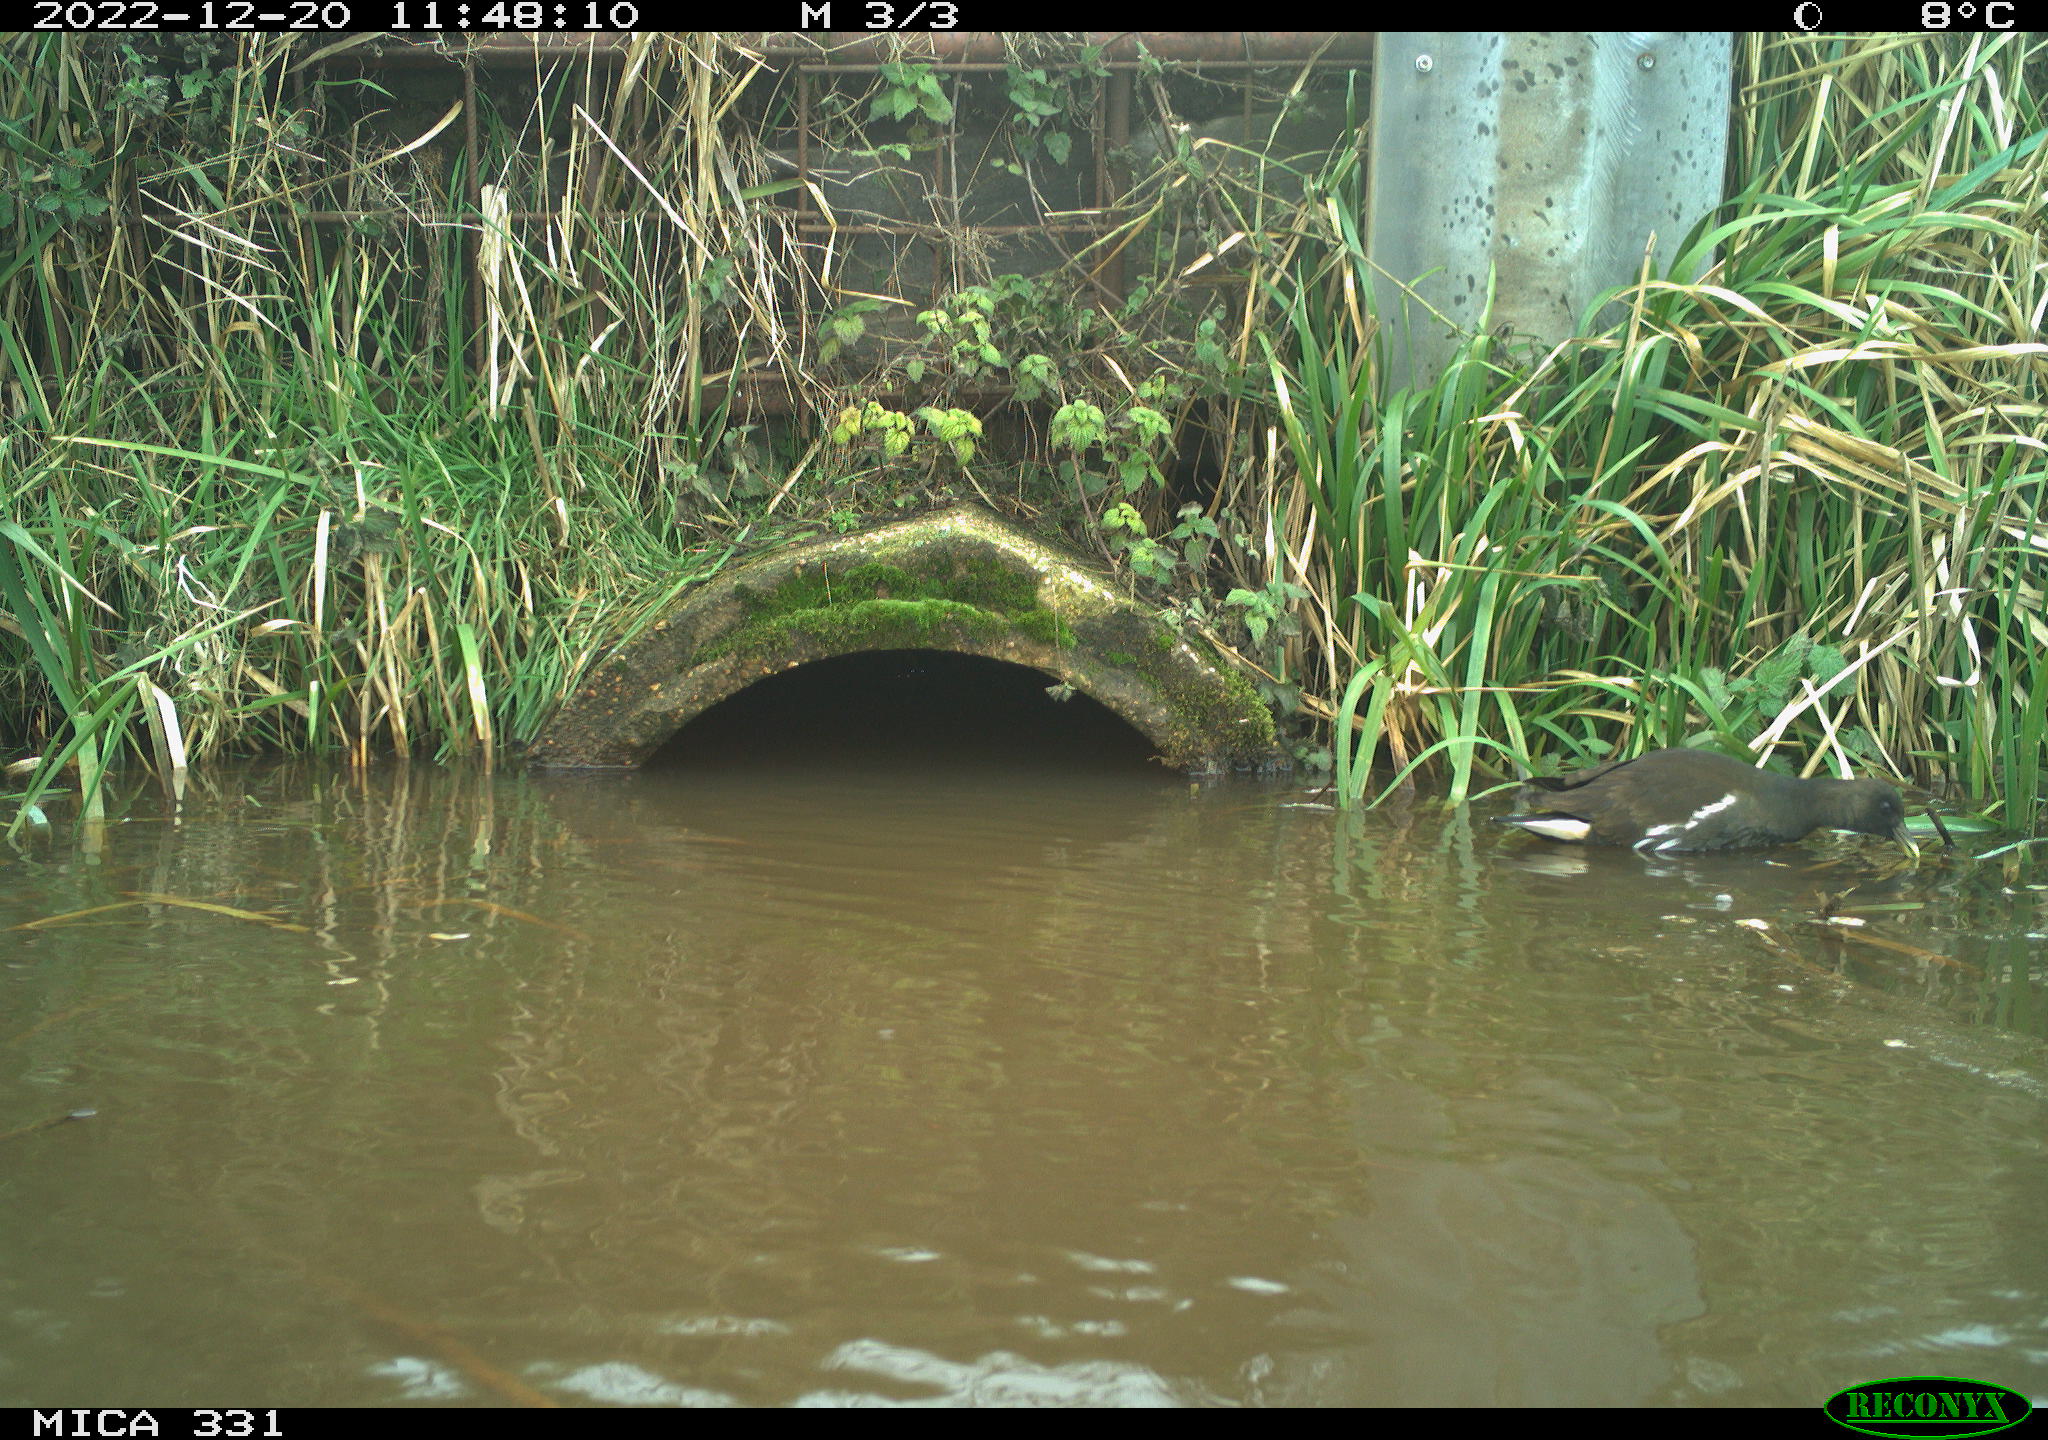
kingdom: Animalia
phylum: Chordata
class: Aves
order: Gruiformes
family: Rallidae
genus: Gallinula
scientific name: Gallinula chloropus
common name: Common moorhen
